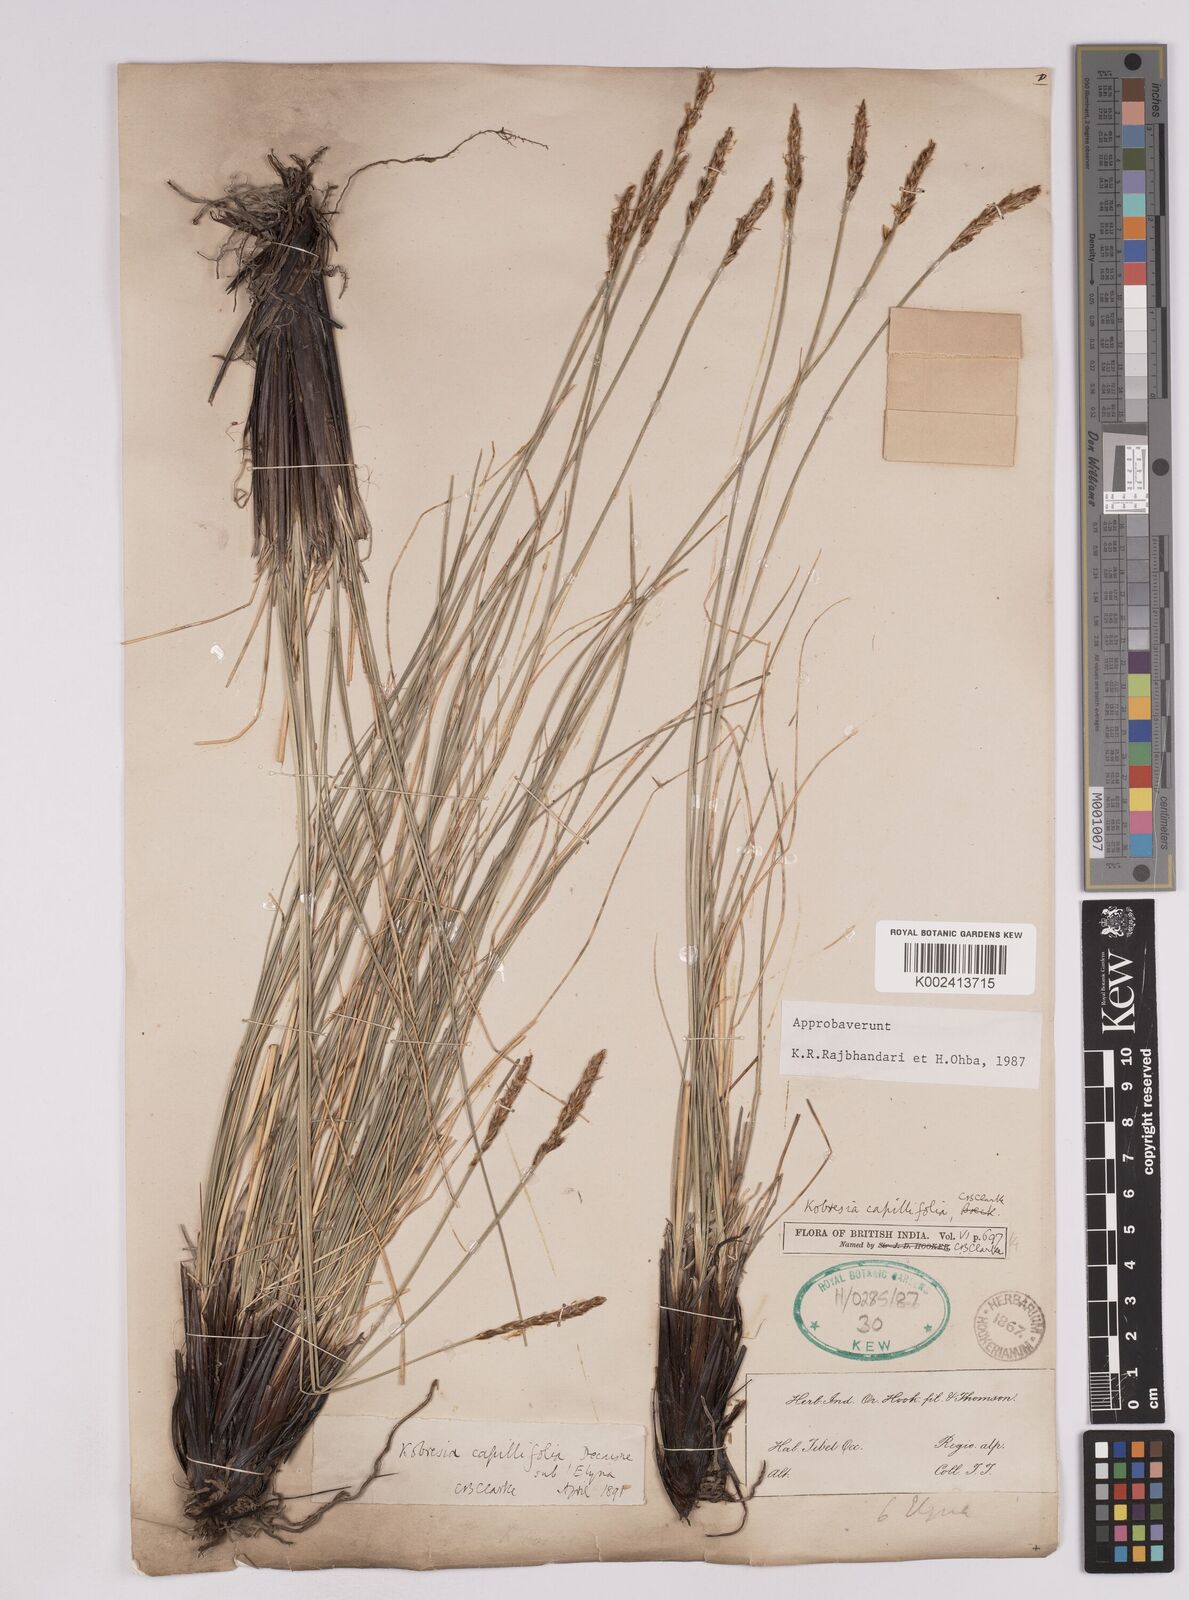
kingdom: Plantae
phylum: Tracheophyta
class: Liliopsida
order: Poales
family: Cyperaceae
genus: Carex
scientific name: Carex capillifolia
